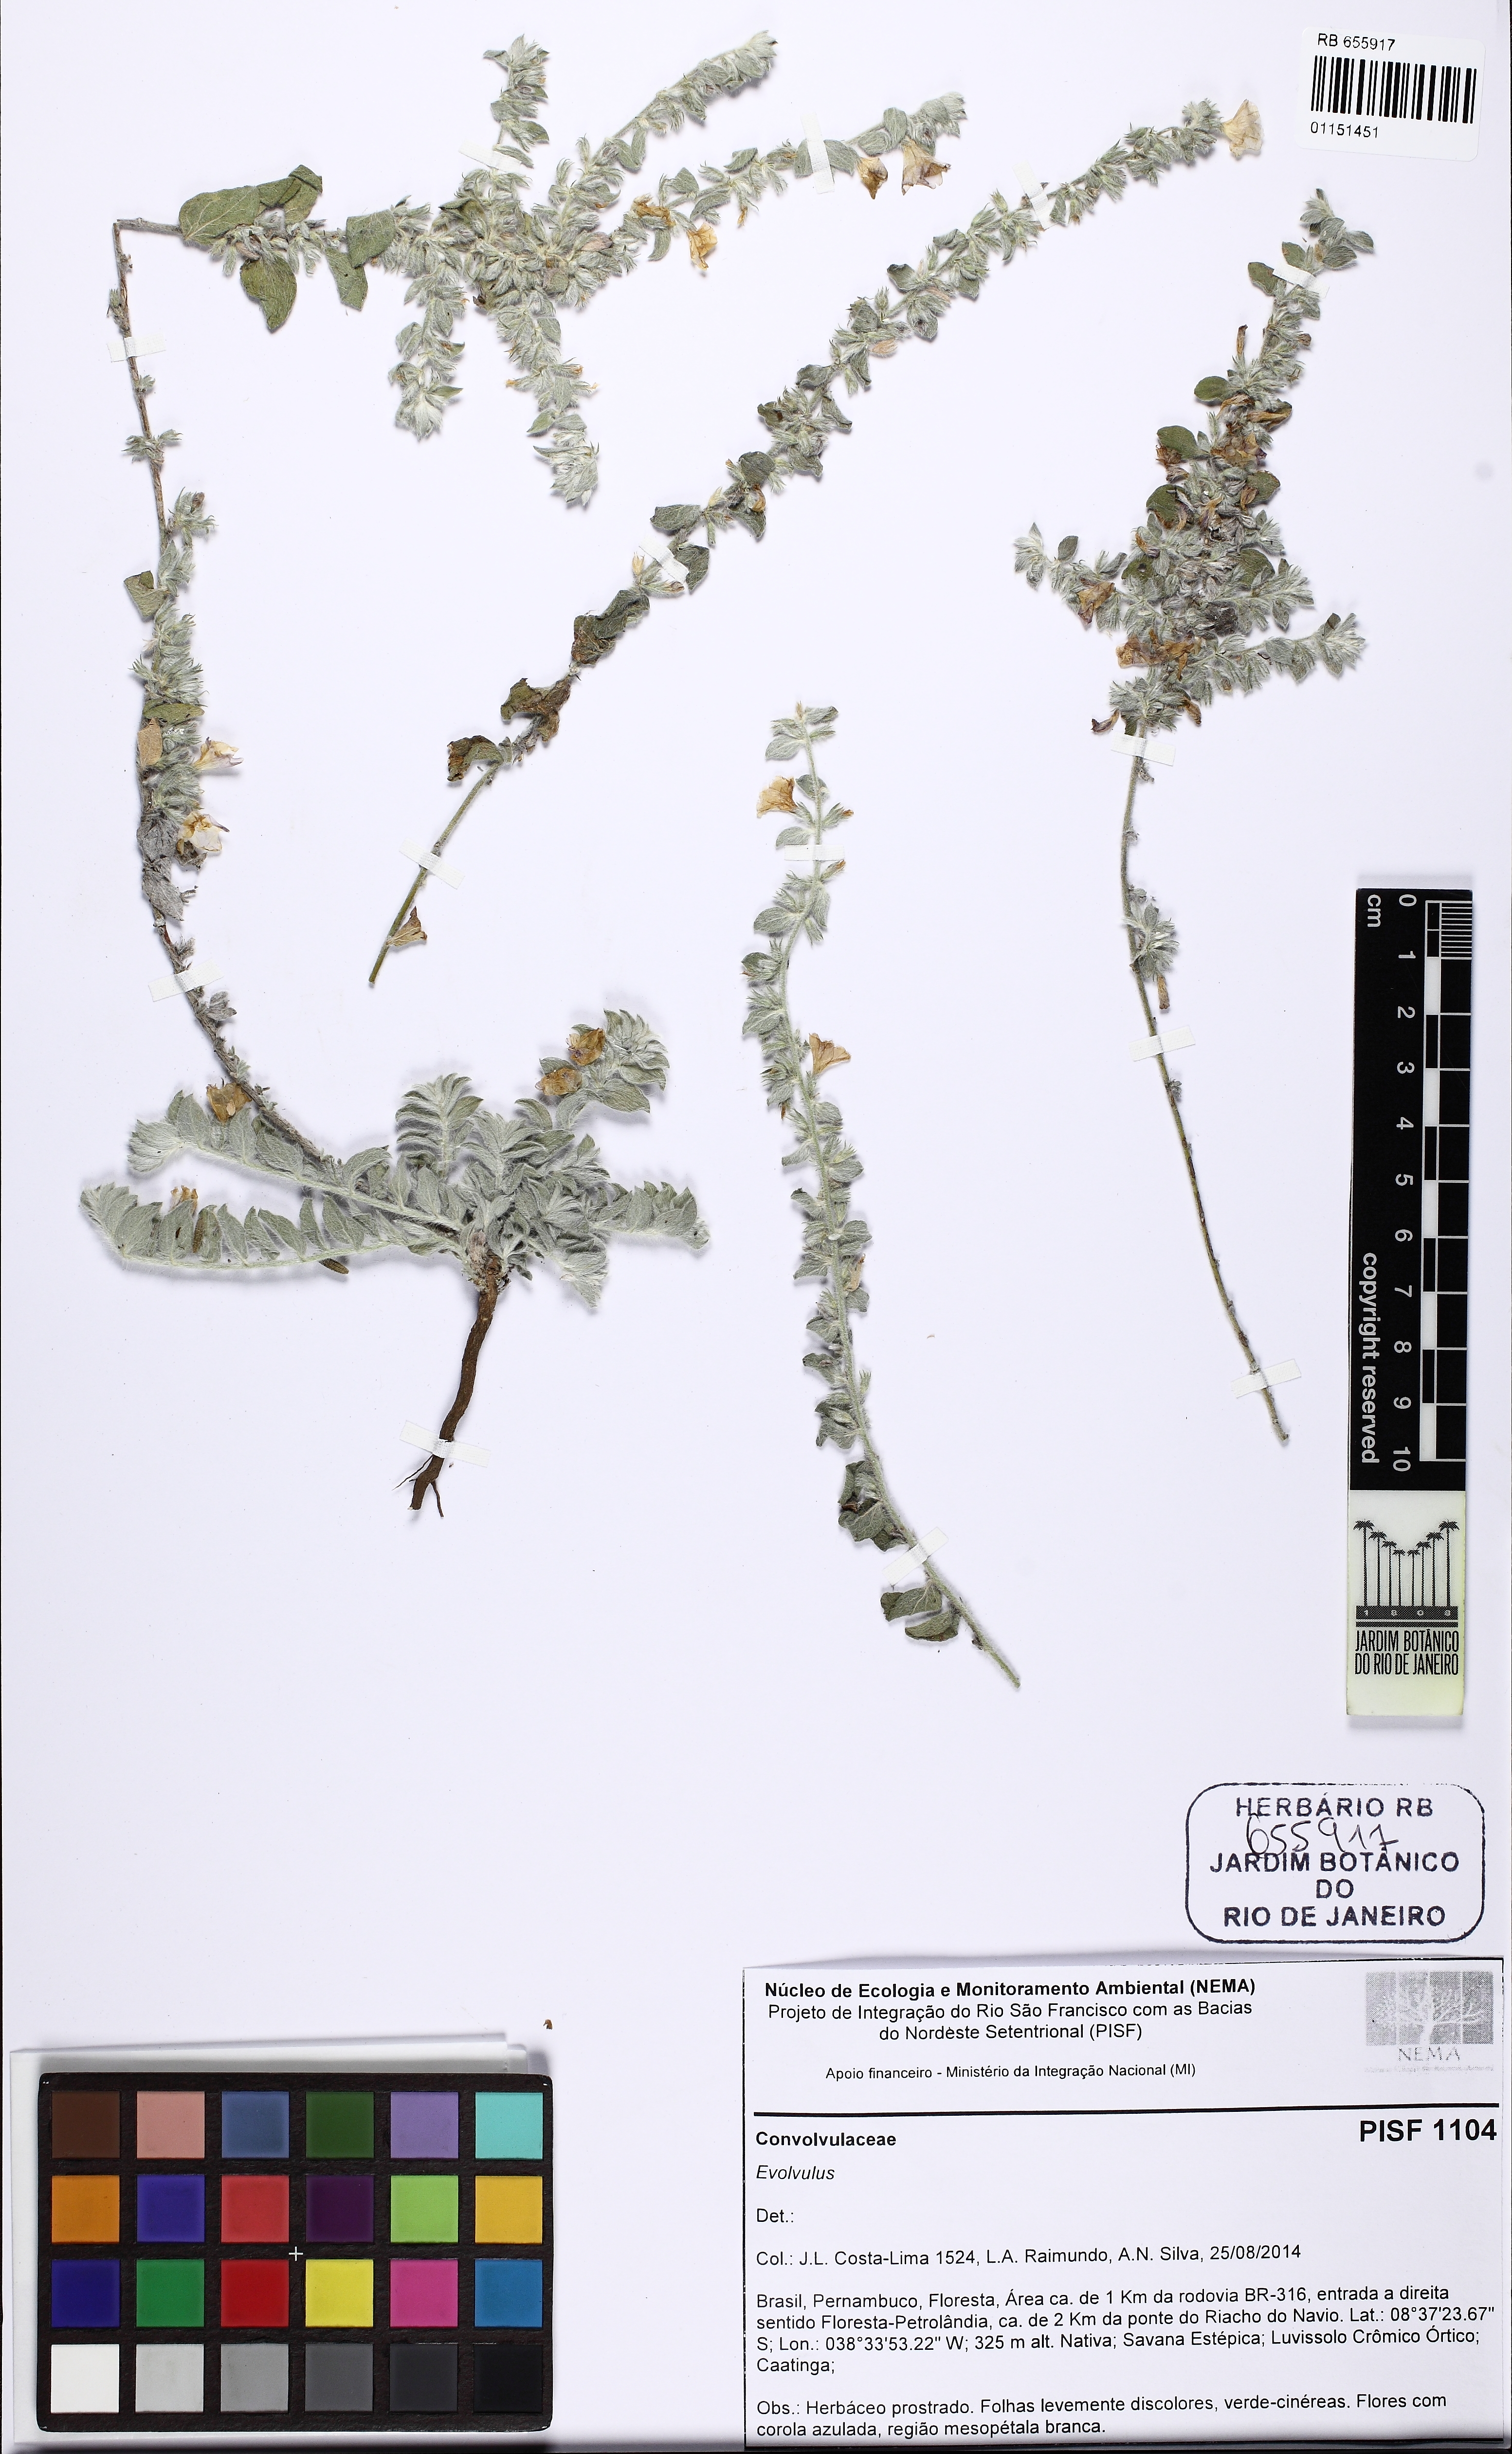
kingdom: Plantae
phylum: Tracheophyta
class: Magnoliopsida
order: Solanales
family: Convolvulaceae
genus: Evolvulus
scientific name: Evolvulus
